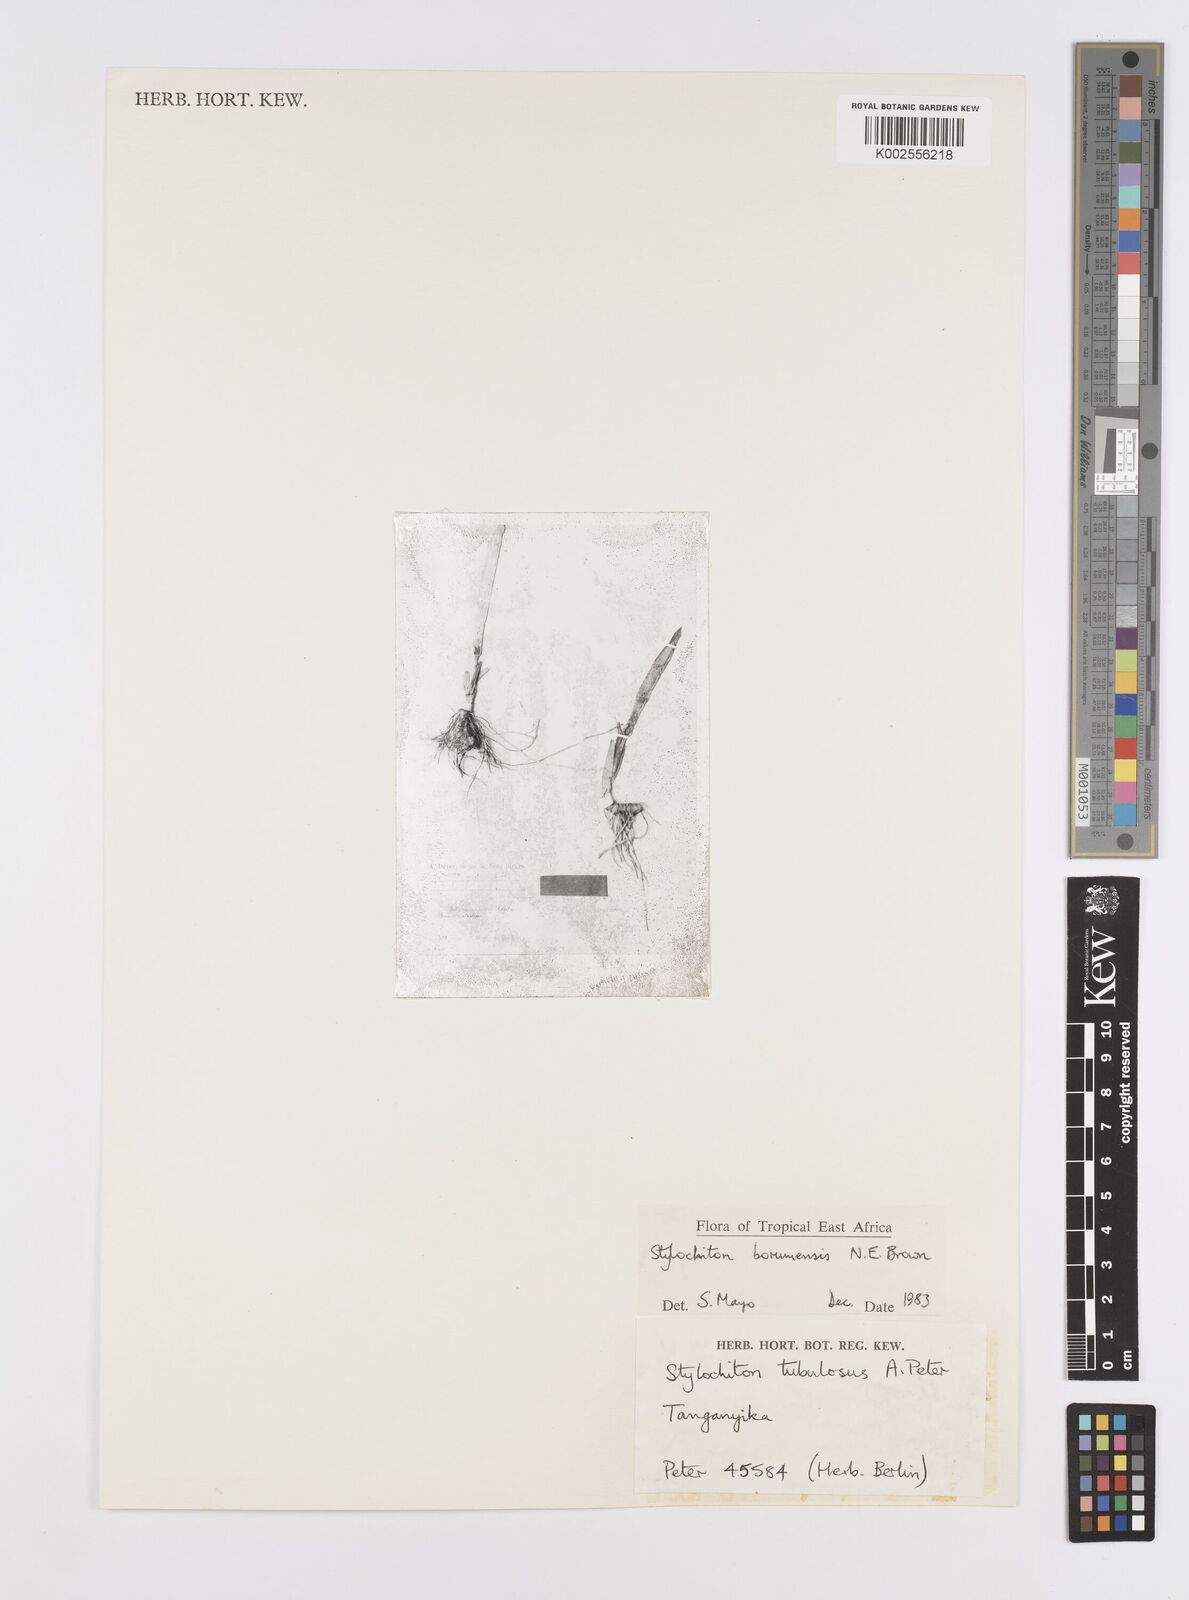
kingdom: Plantae
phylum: Tracheophyta
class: Liliopsida
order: Alismatales
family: Araceae
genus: Stylochaeton
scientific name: Stylochaeton borumense
